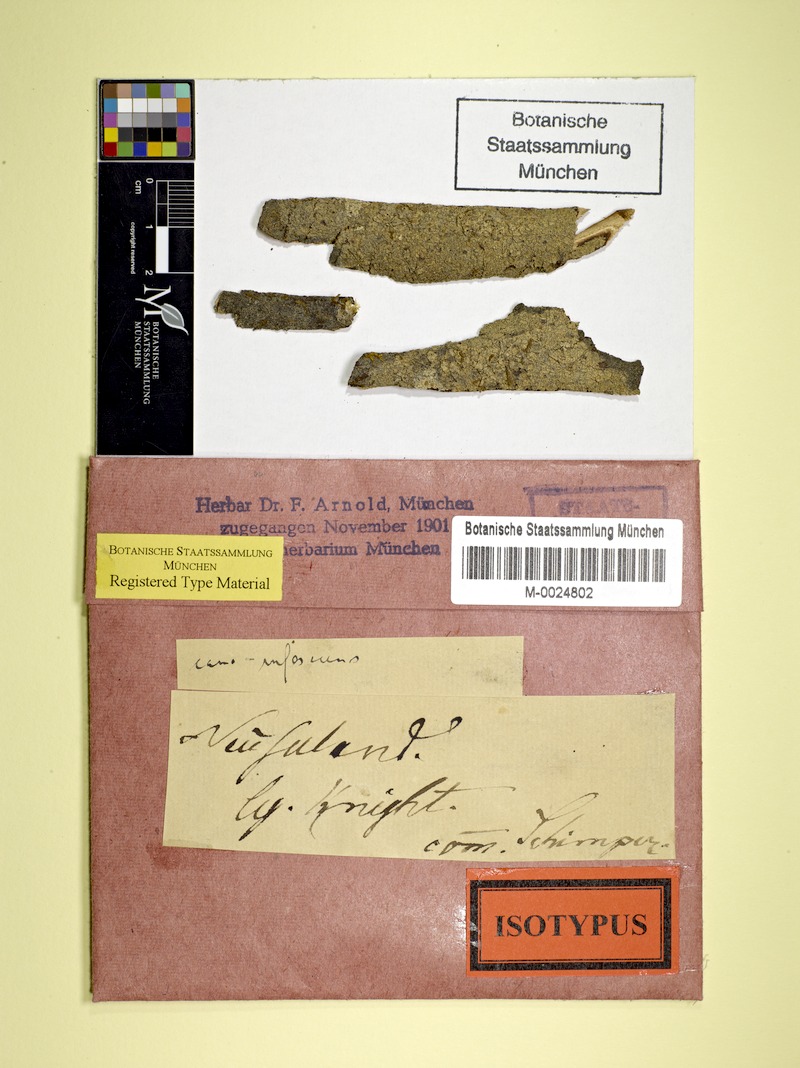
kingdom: Fungi
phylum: Ascomycota
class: Lecanoromycetes
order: Lecanorales
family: Malmideaceae
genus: Australidea
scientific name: Australidea canorufescens
